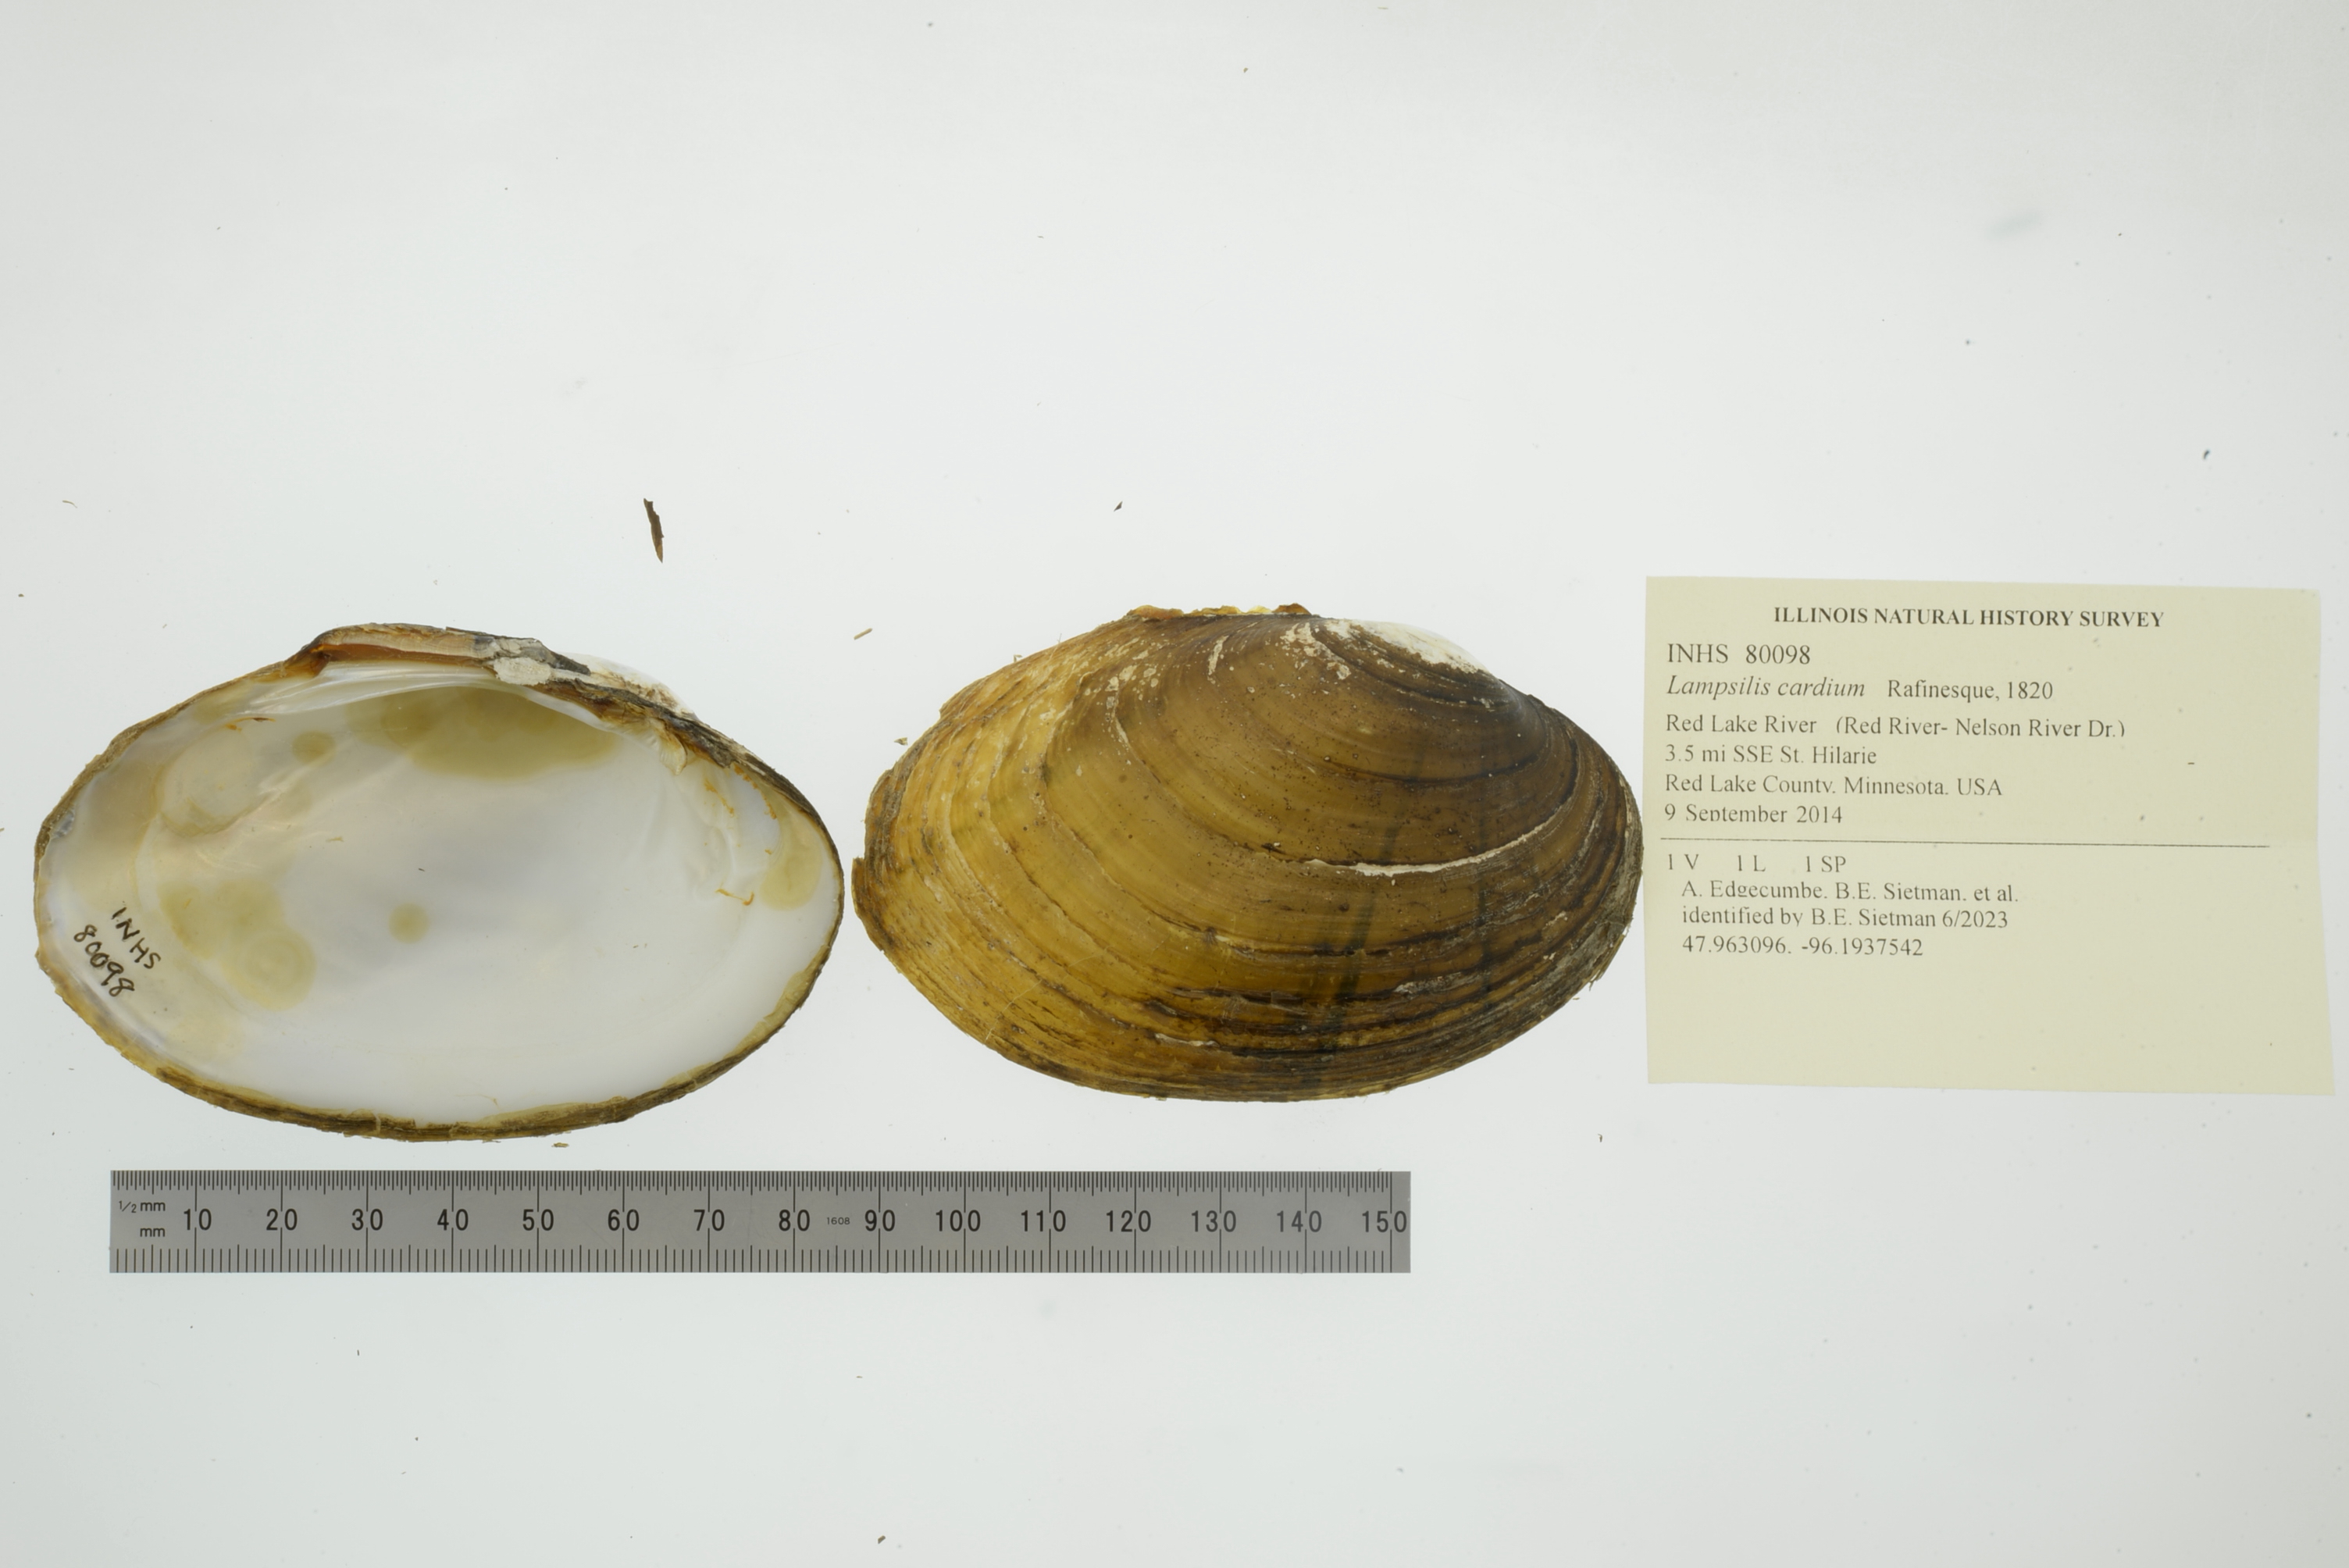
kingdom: Animalia
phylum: Mollusca
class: Bivalvia
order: Unionida
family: Unionidae
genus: Lampsilis
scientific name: Lampsilis cardium
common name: Plain pocketbook
